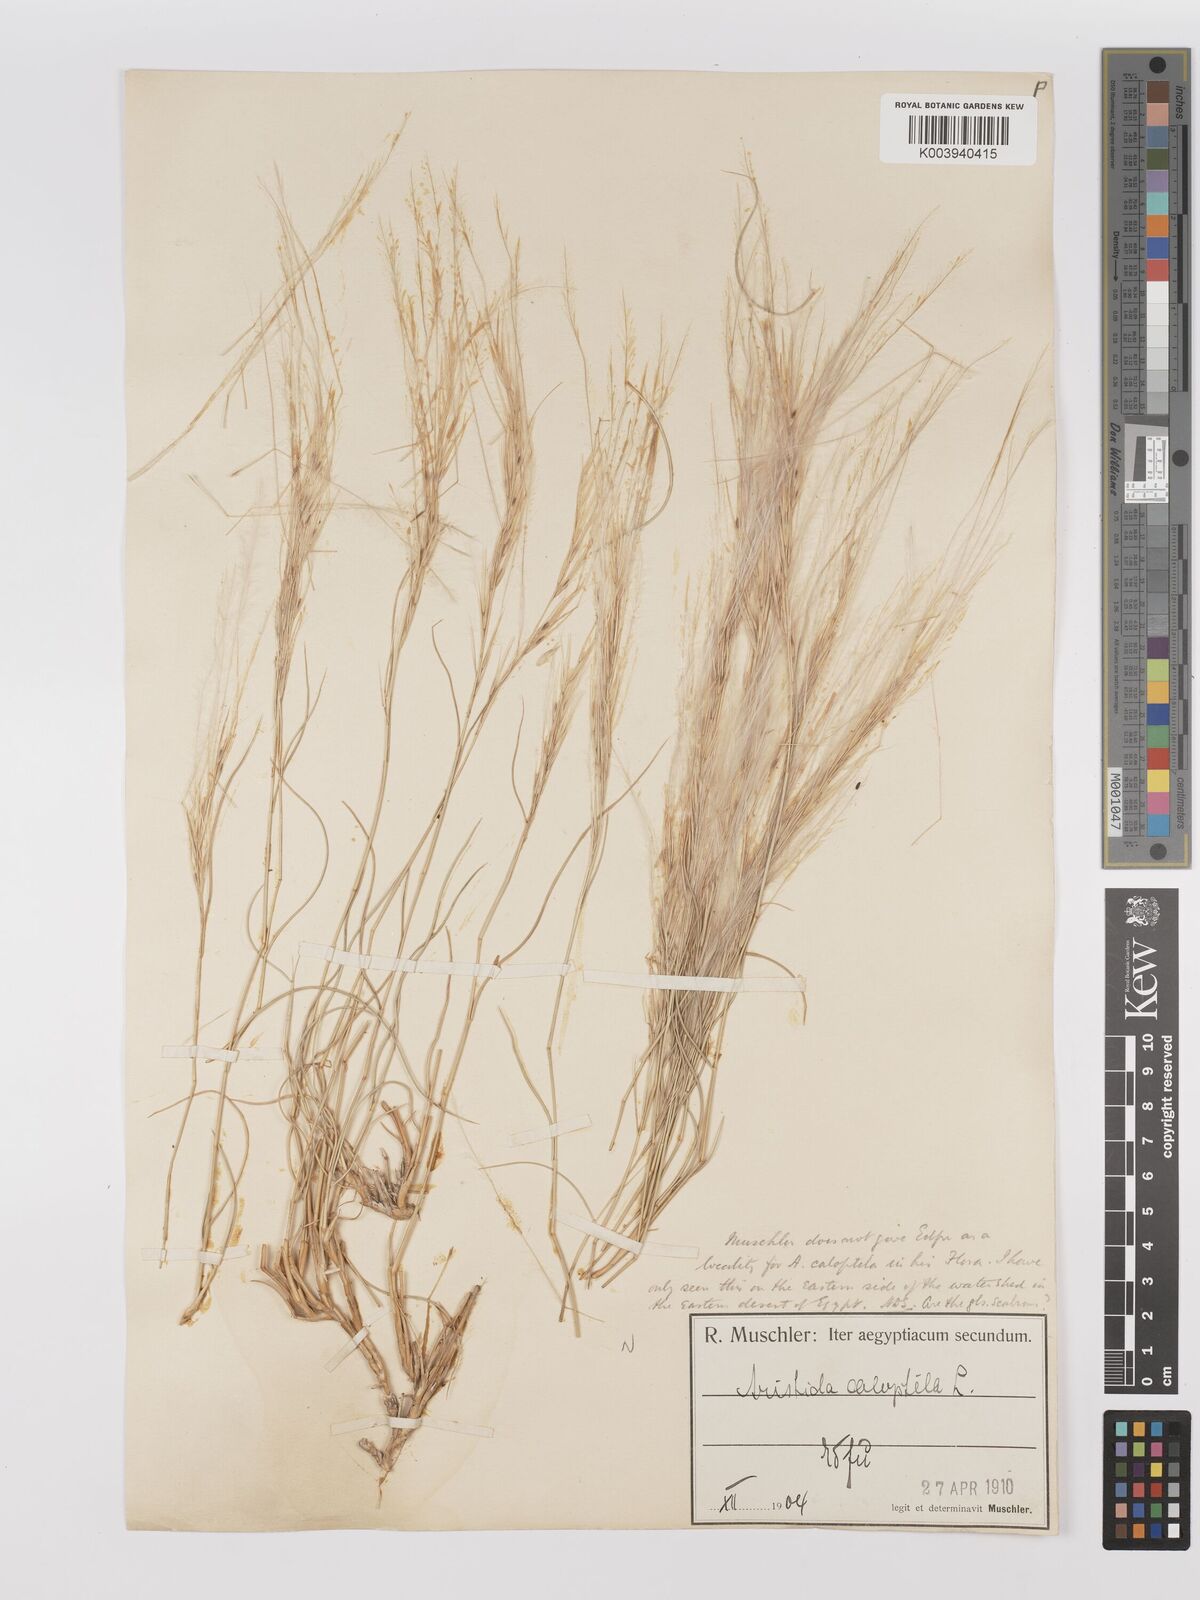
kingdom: Plantae
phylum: Tracheophyta
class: Liliopsida
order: Poales
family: Poaceae
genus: Stipagrostis
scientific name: Stipagrostis paradisea
